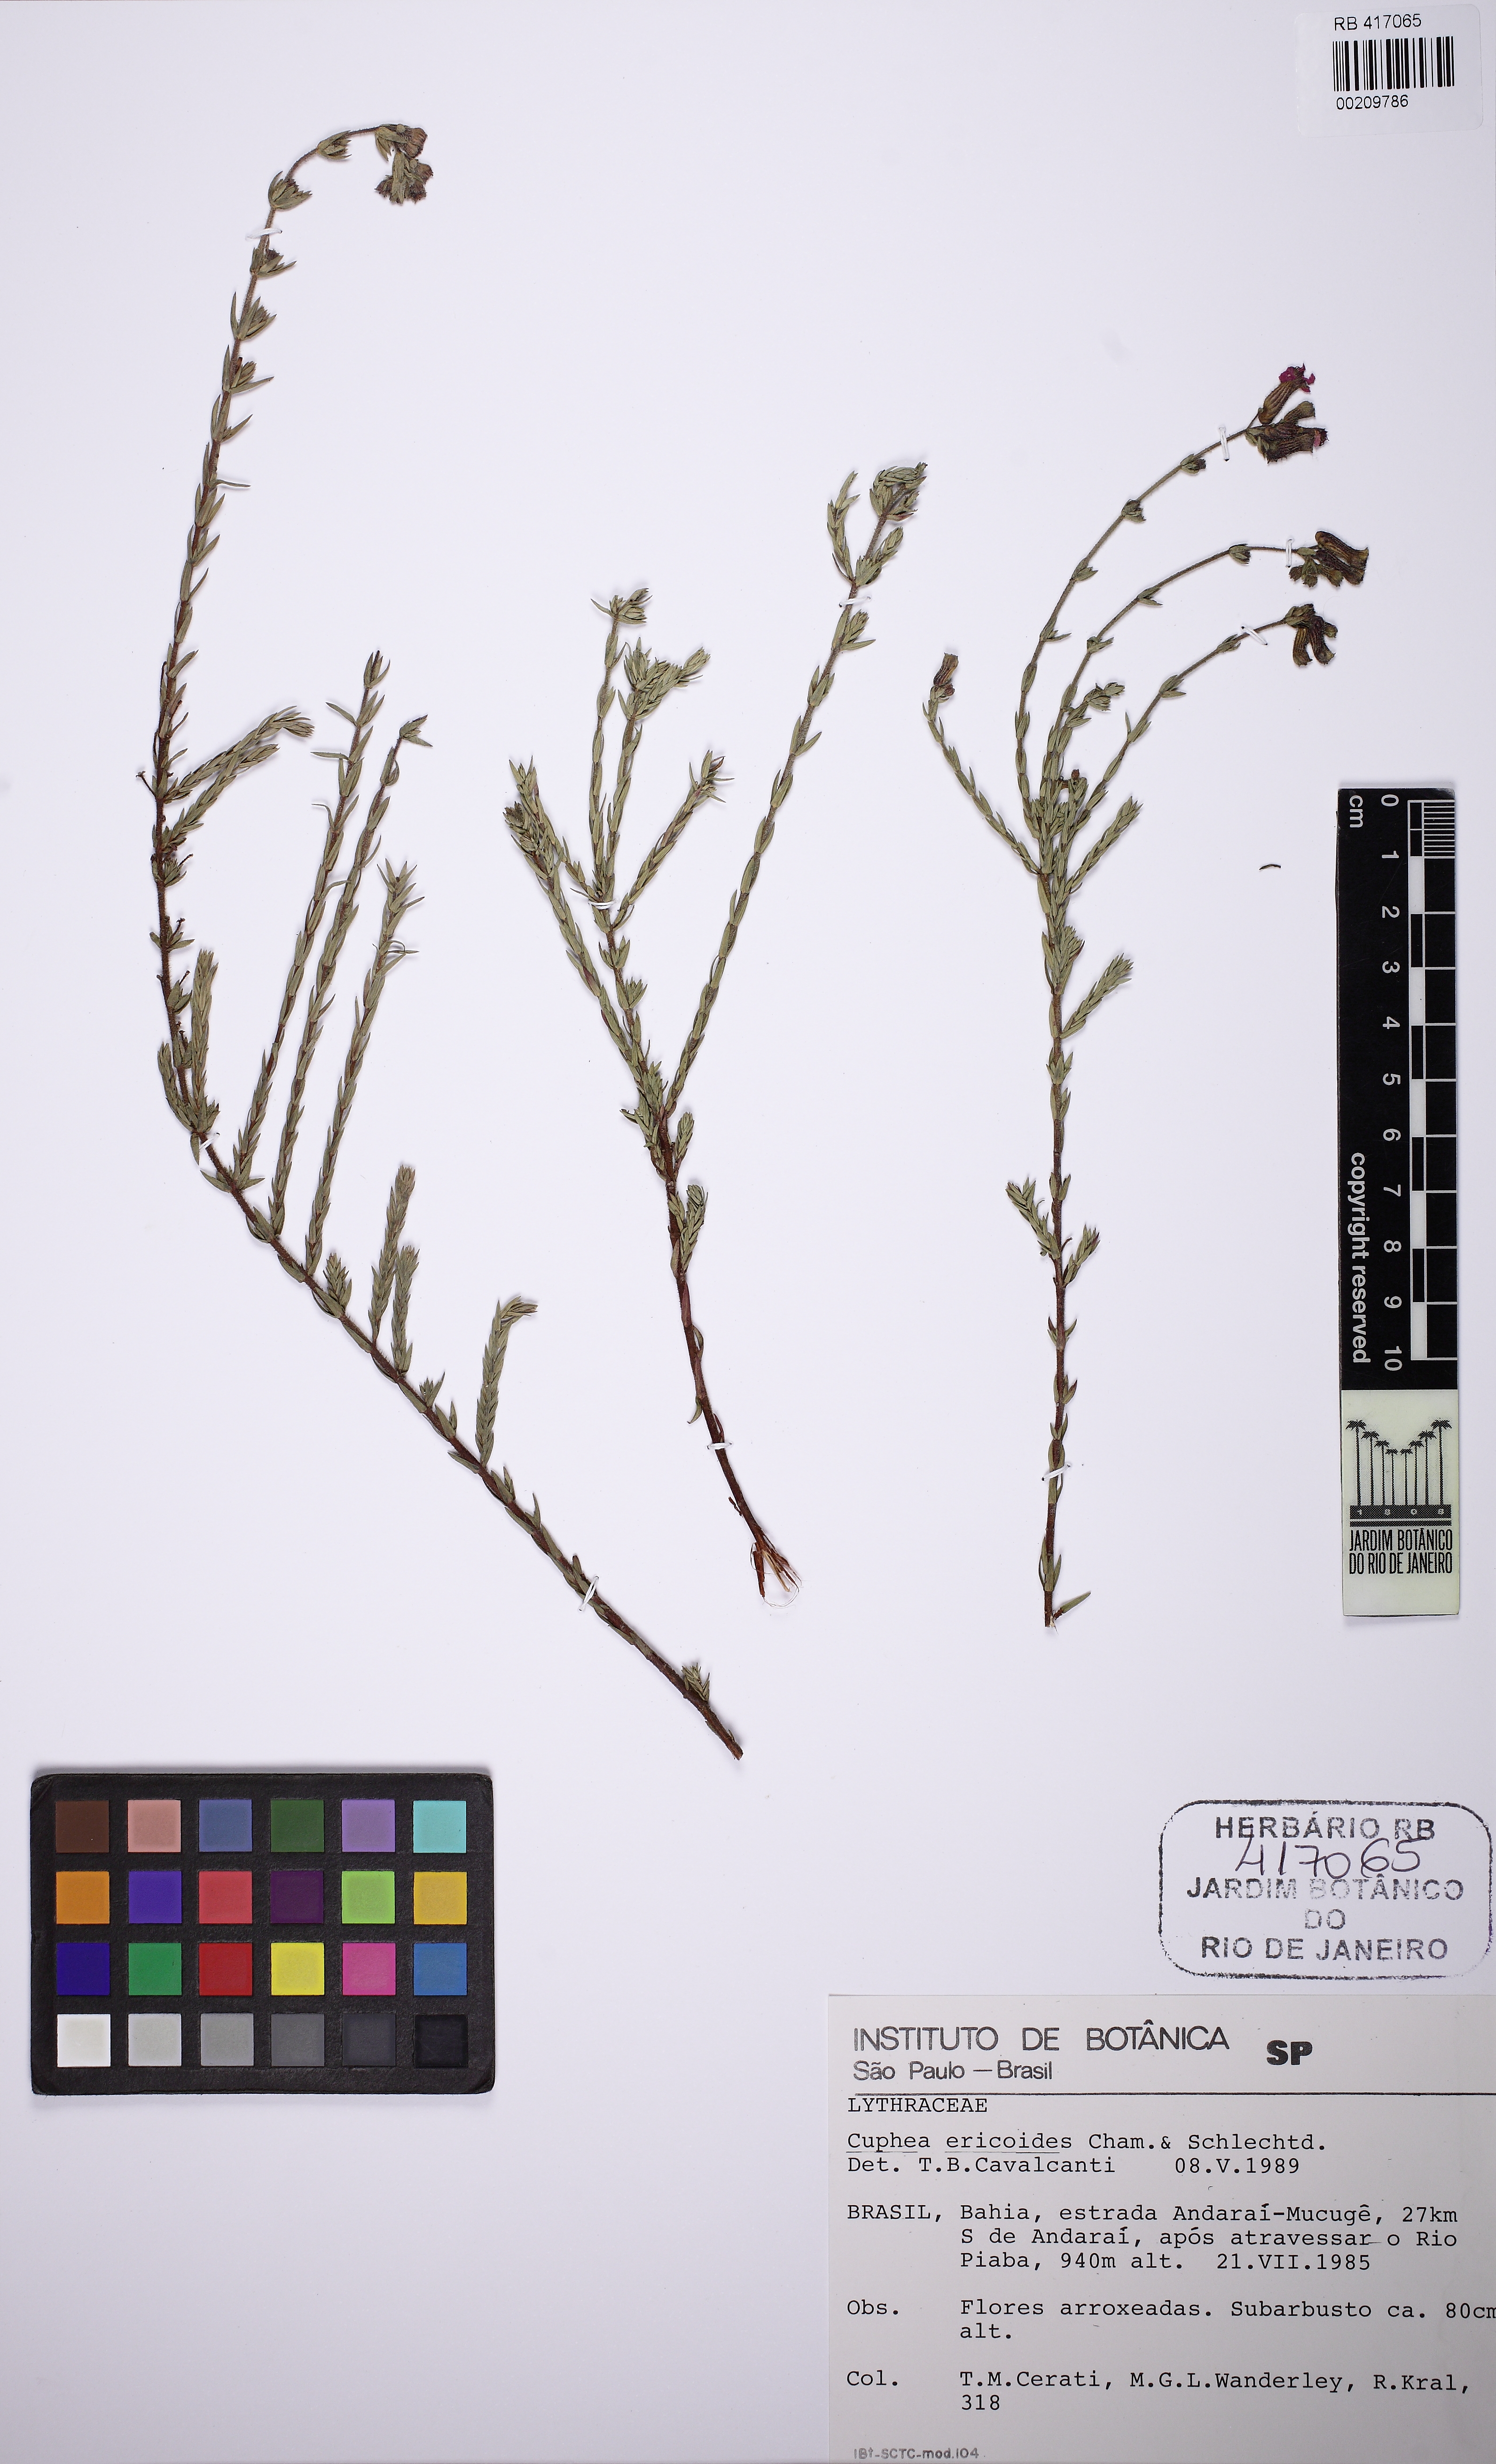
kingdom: Plantae
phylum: Tracheophyta
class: Magnoliopsida
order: Myrtales
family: Lythraceae
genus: Cuphea
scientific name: Cuphea ericoides
